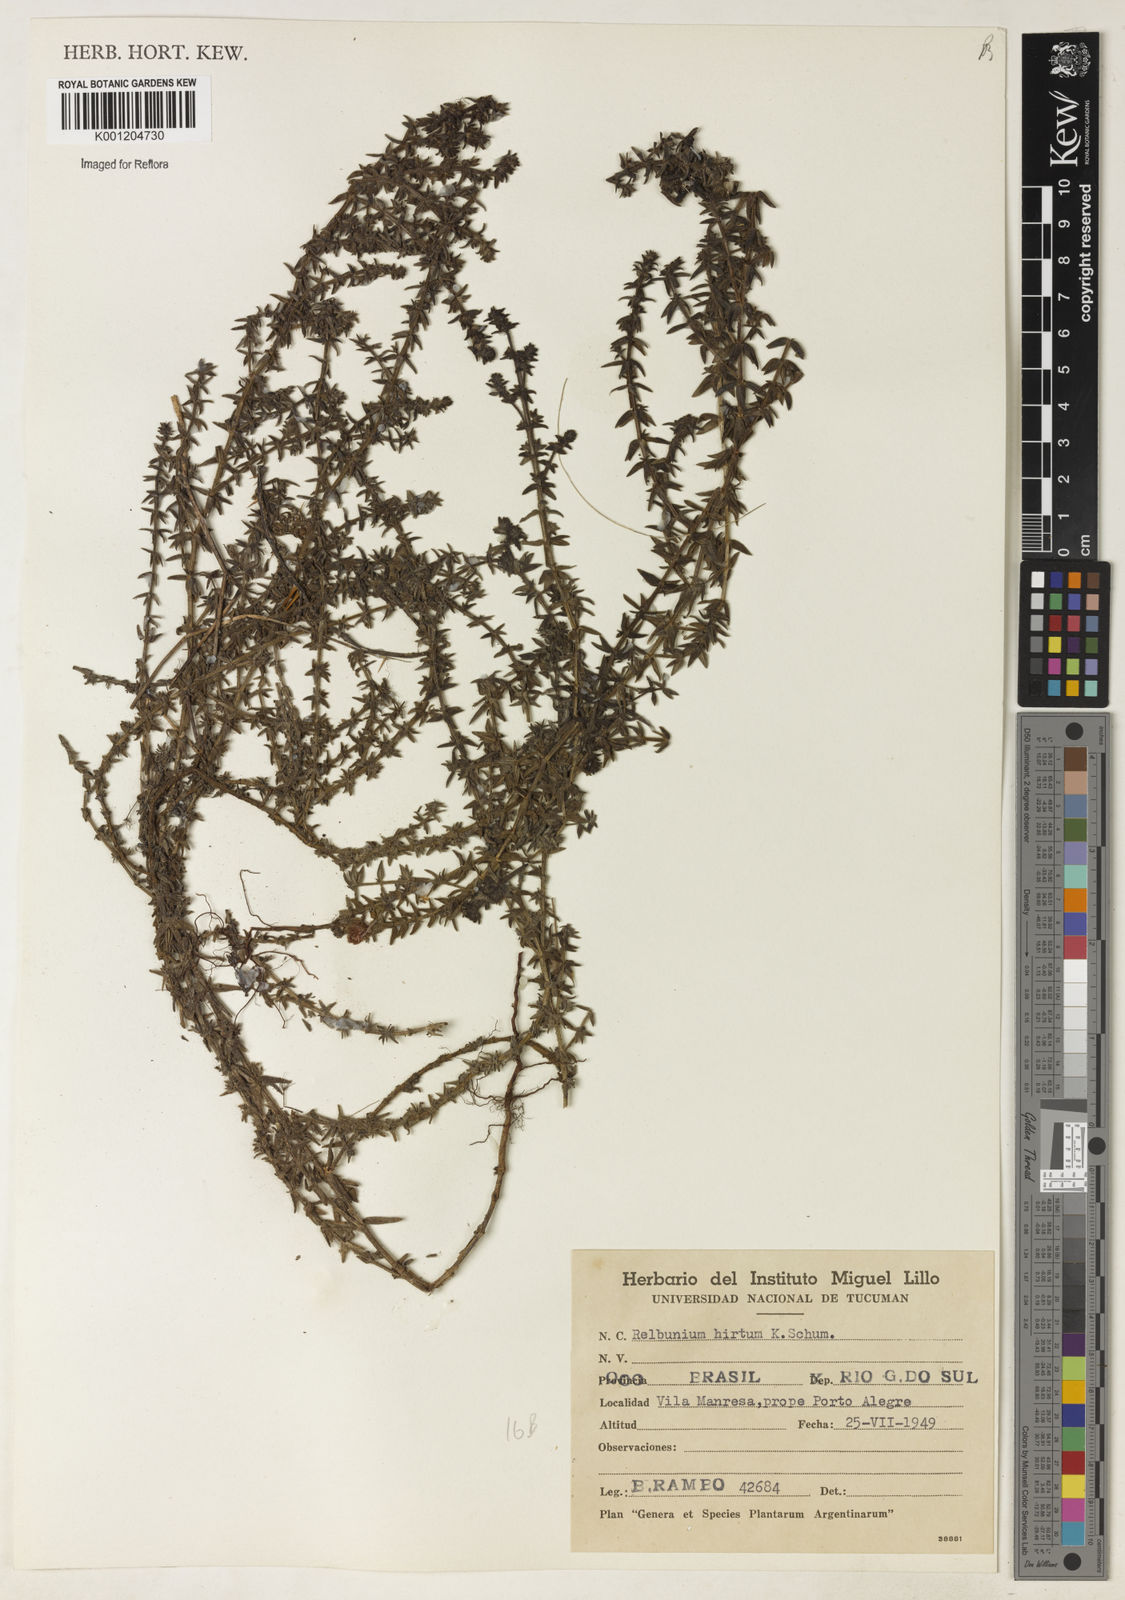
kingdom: Plantae
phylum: Tracheophyta
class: Magnoliopsida
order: Gentianales
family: Rubiaceae
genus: Galium
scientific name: Galium hirtum
